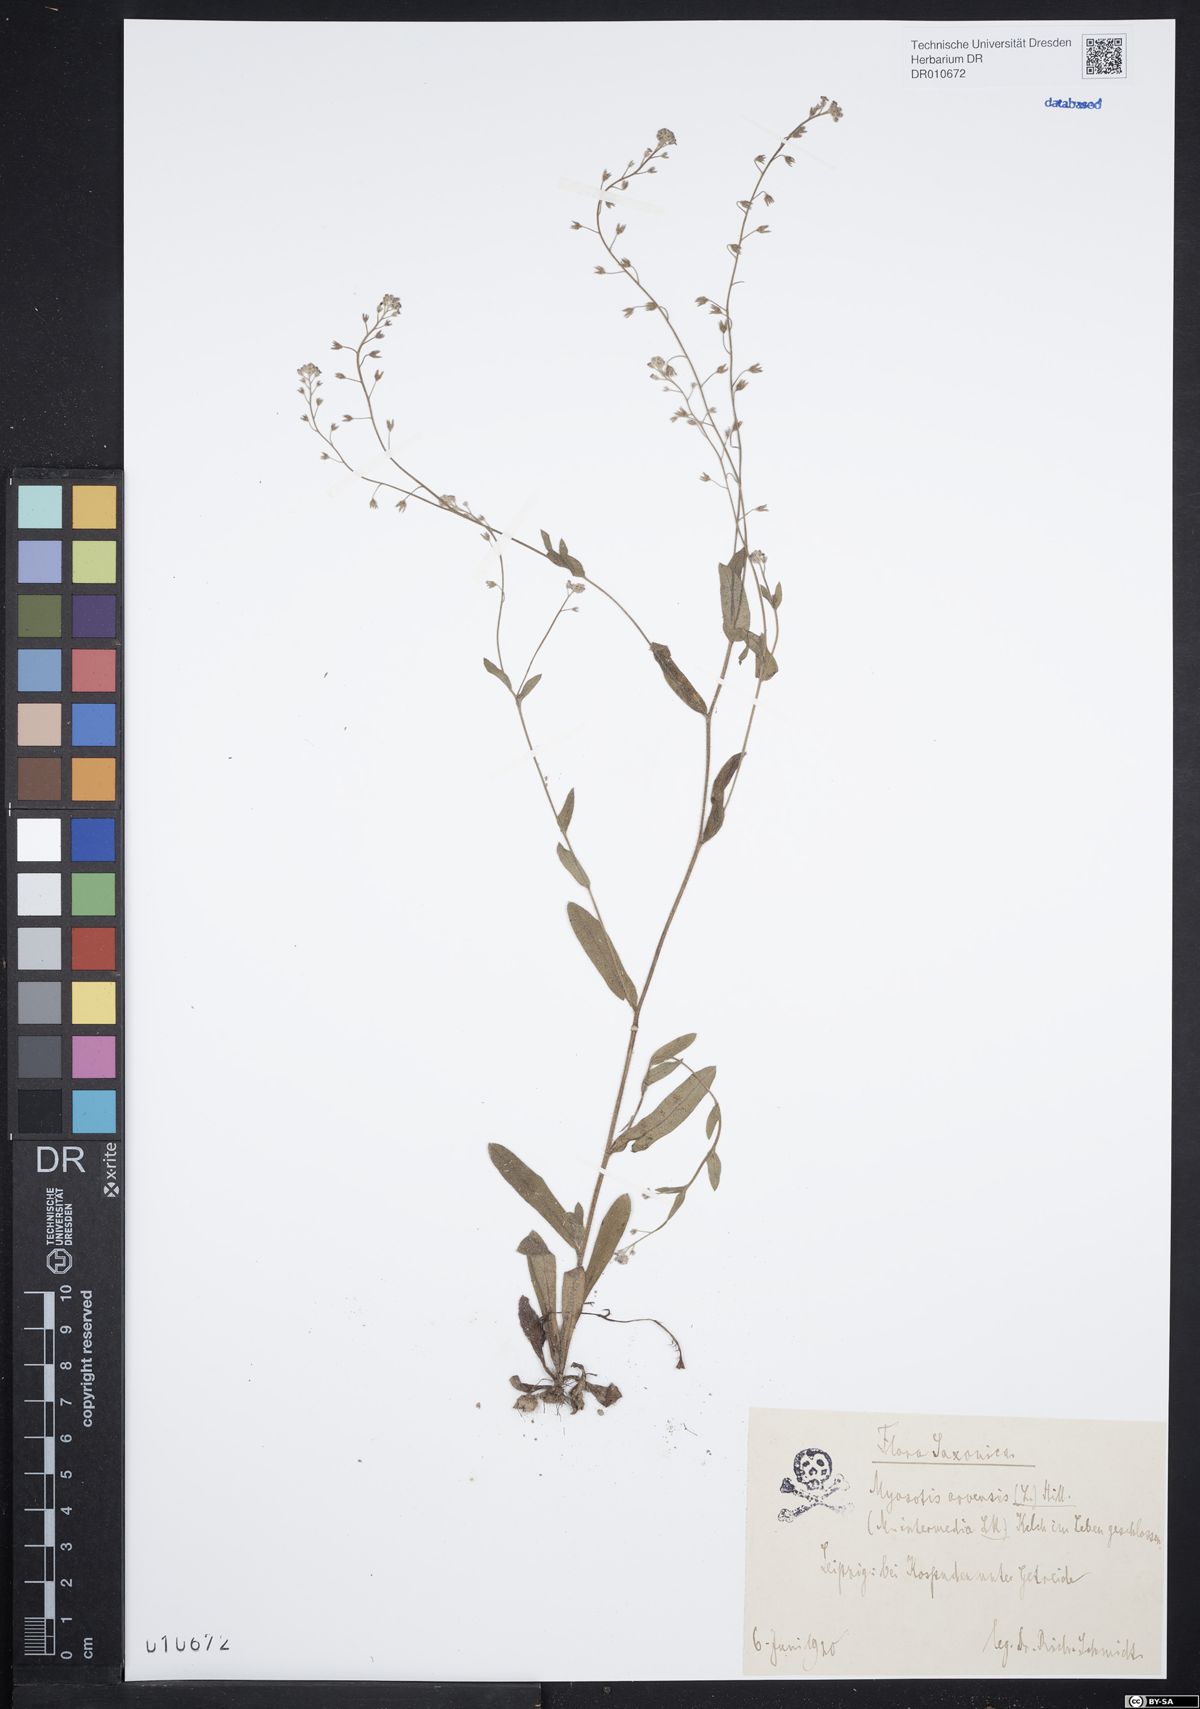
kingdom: Plantae
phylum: Tracheophyta
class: Magnoliopsida
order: Boraginales
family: Boraginaceae
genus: Myosotis
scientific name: Myosotis arvensis
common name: Field forget-me-not
